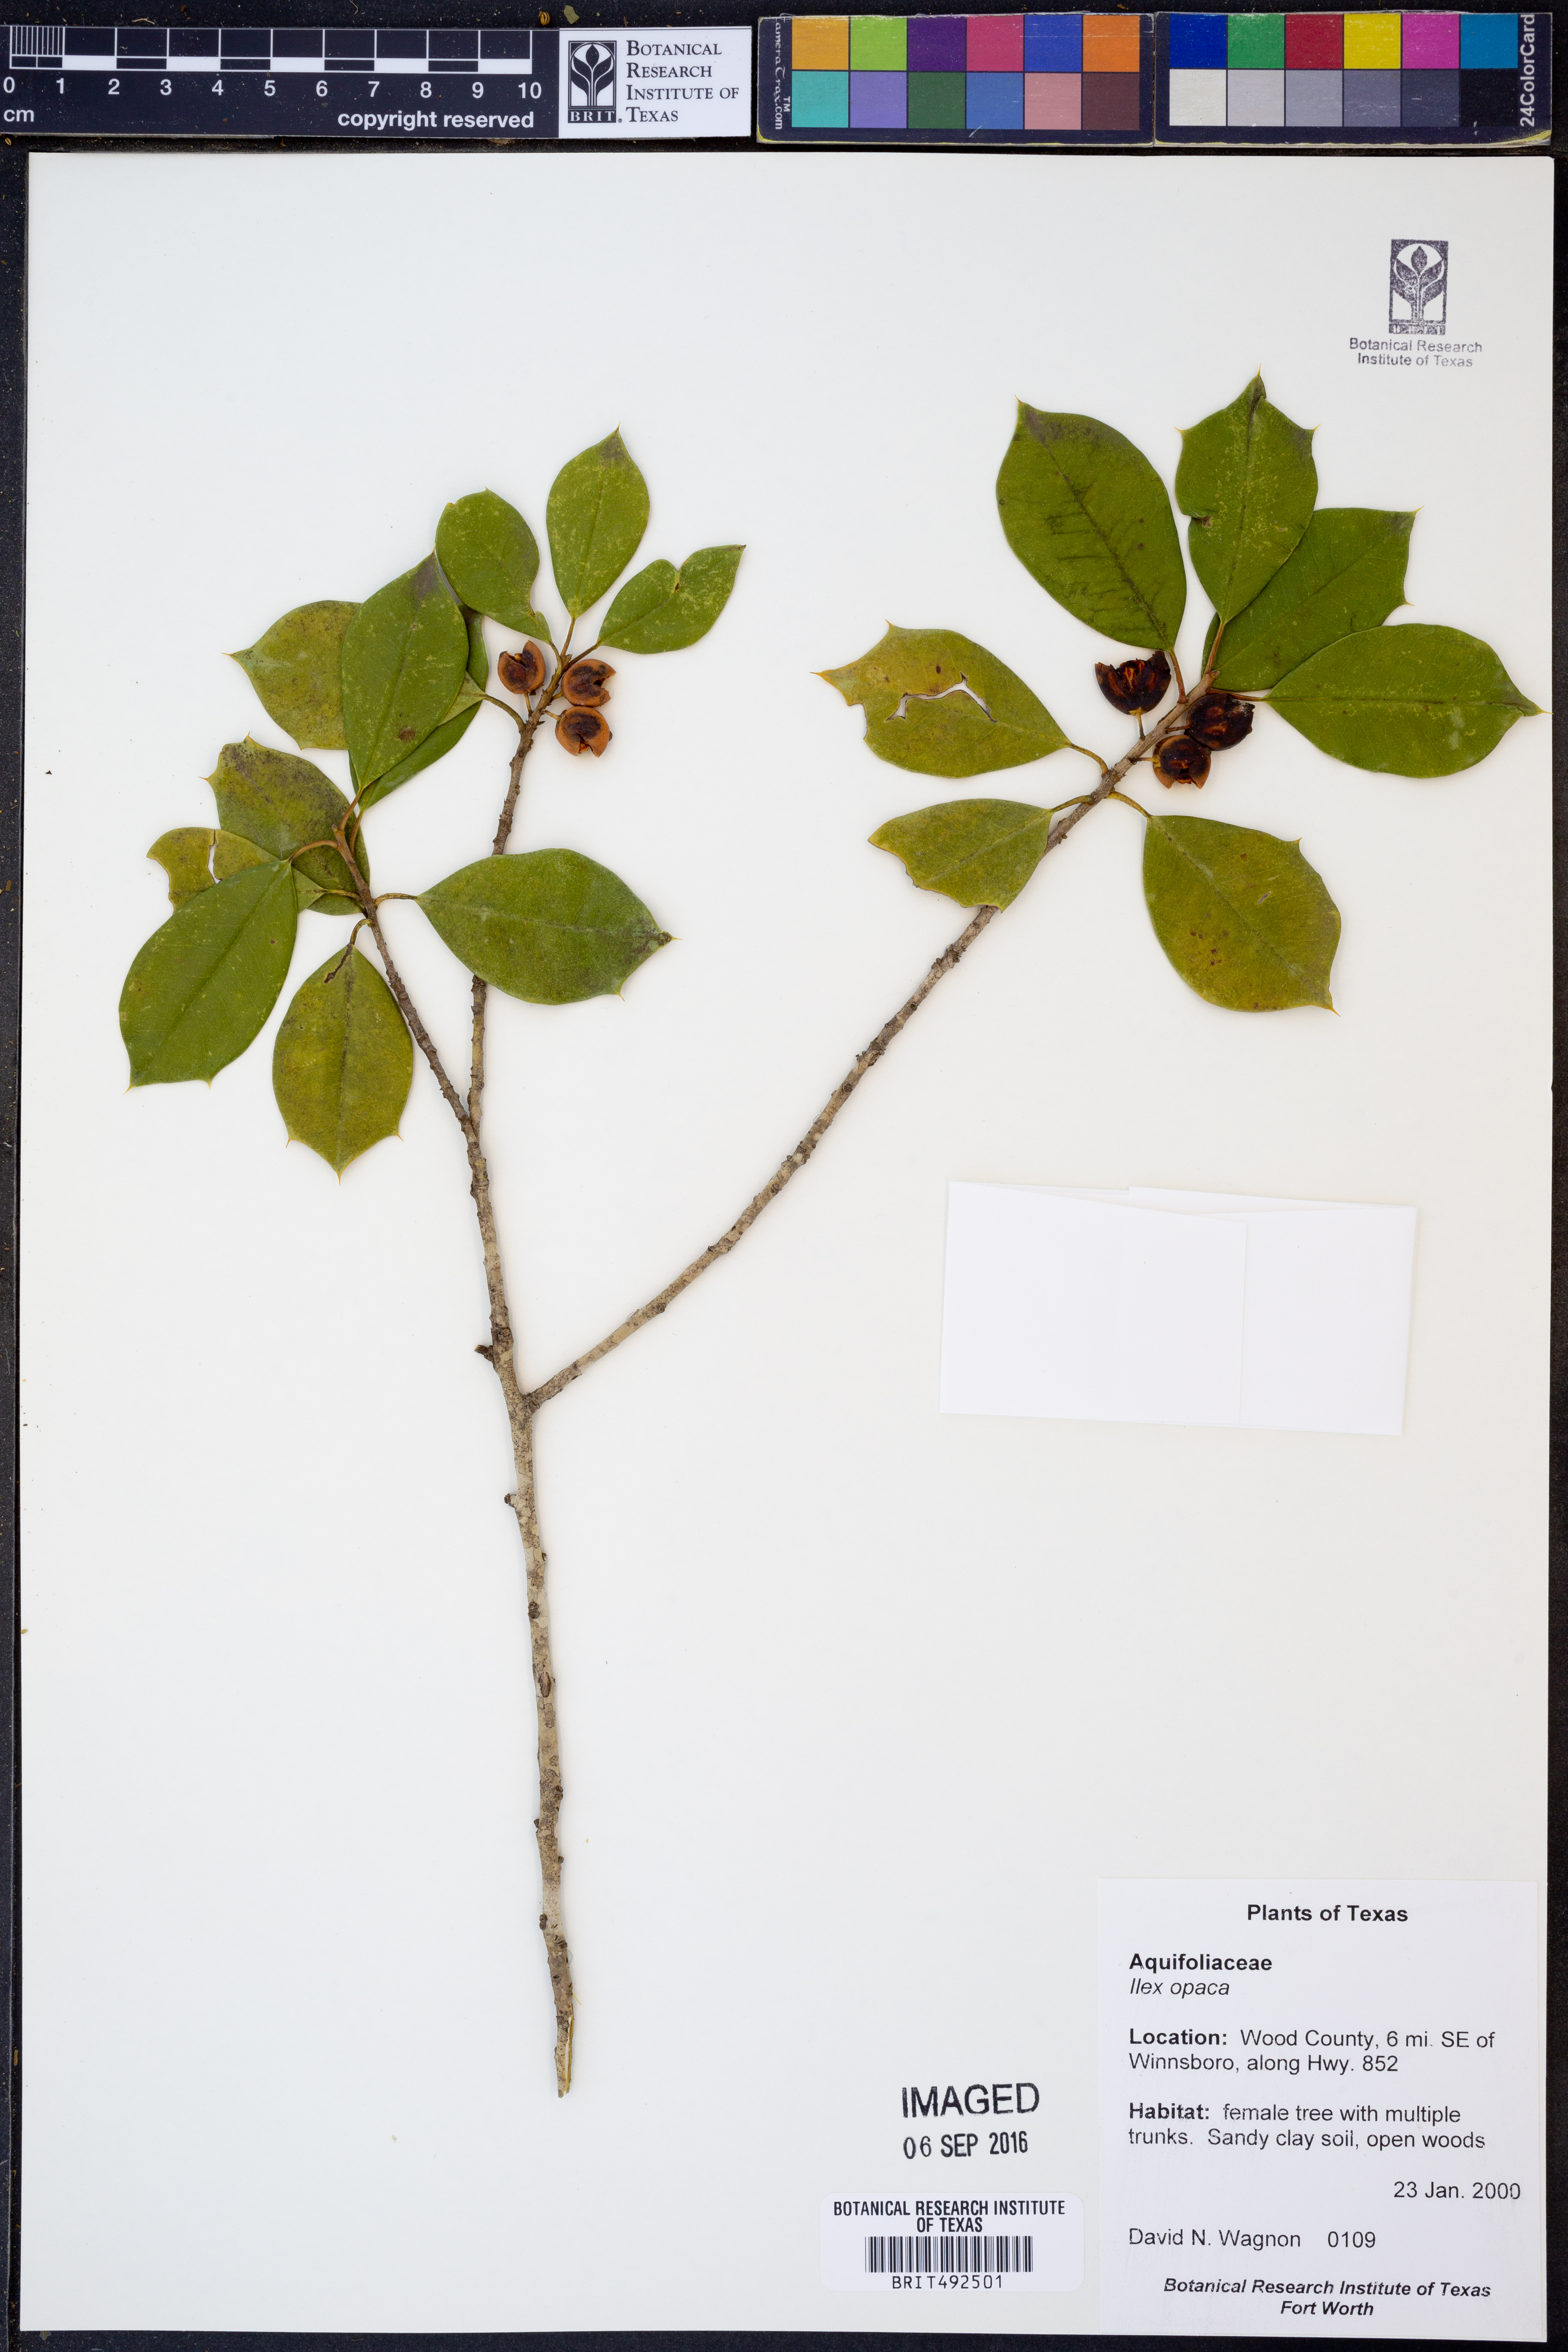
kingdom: Plantae
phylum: Tracheophyta
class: Magnoliopsida
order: Aquifoliales
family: Aquifoliaceae
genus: Ilex
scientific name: Ilex opaca
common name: American holly
